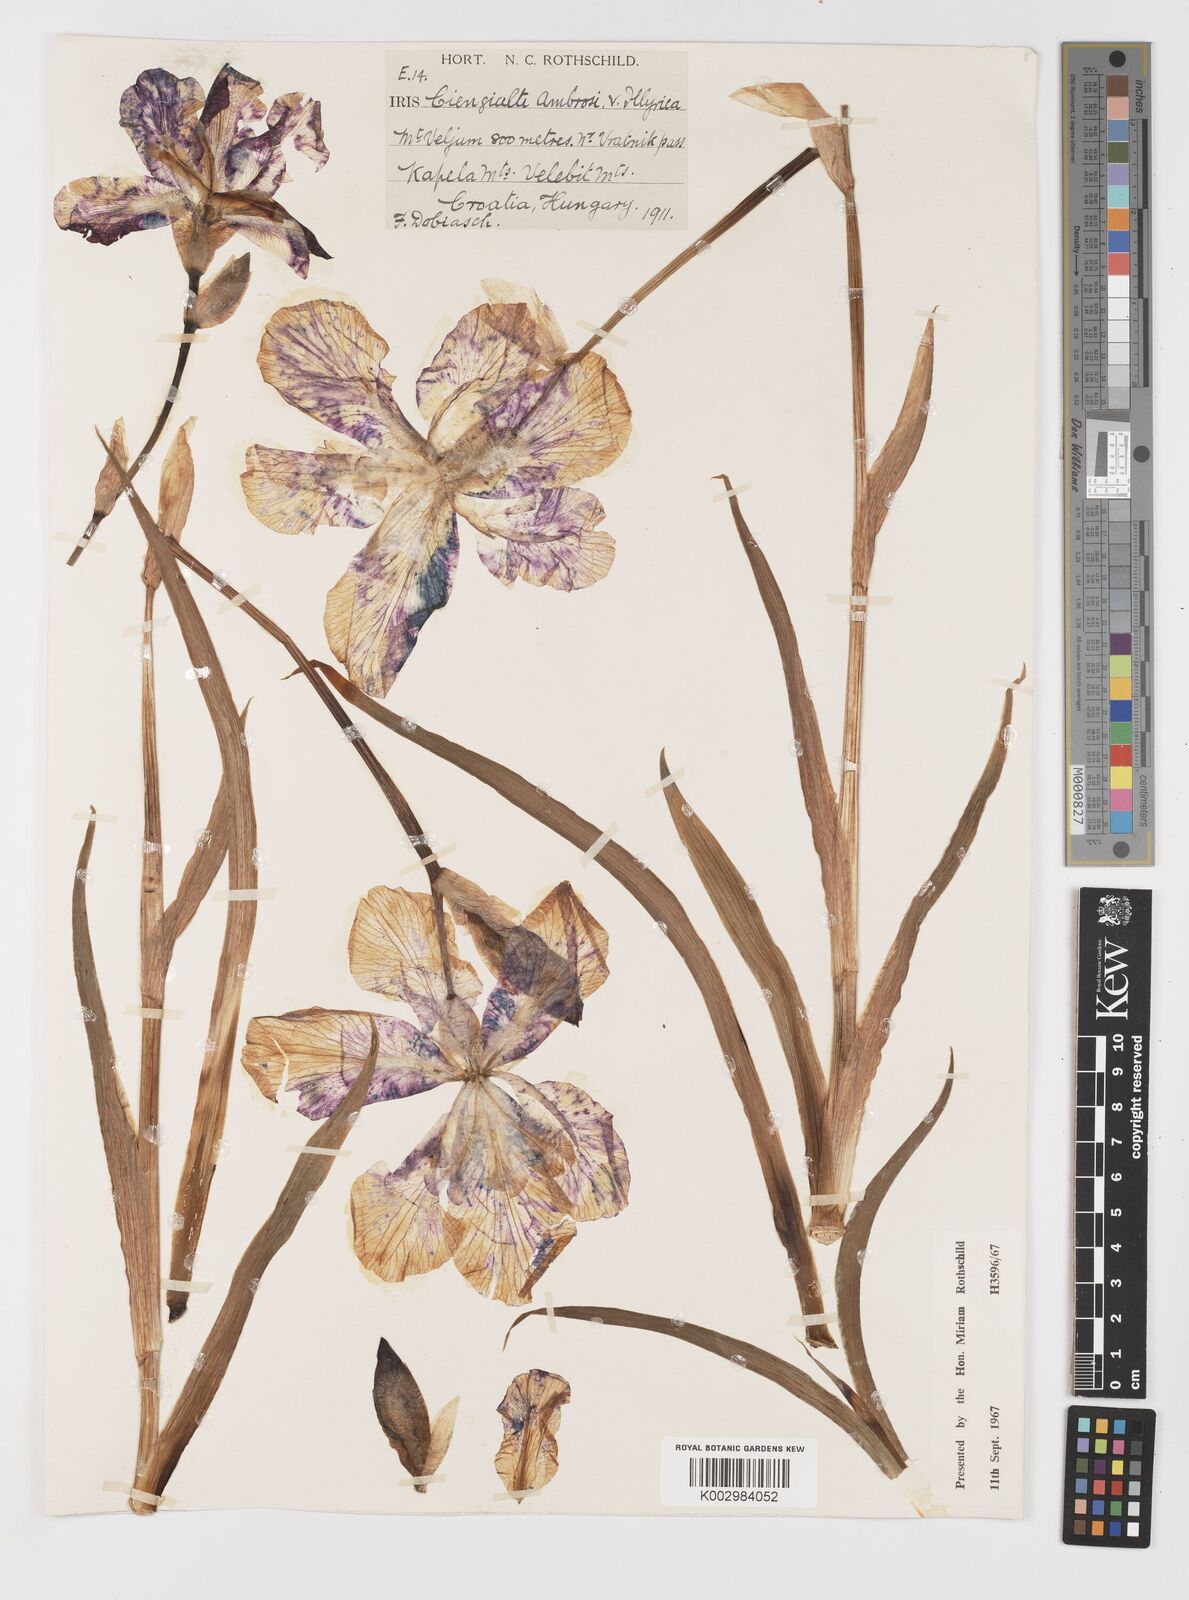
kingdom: Plantae
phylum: Tracheophyta
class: Liliopsida
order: Asparagales
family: Iridaceae
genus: Iris
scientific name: Iris pallida
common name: Sweet iris
